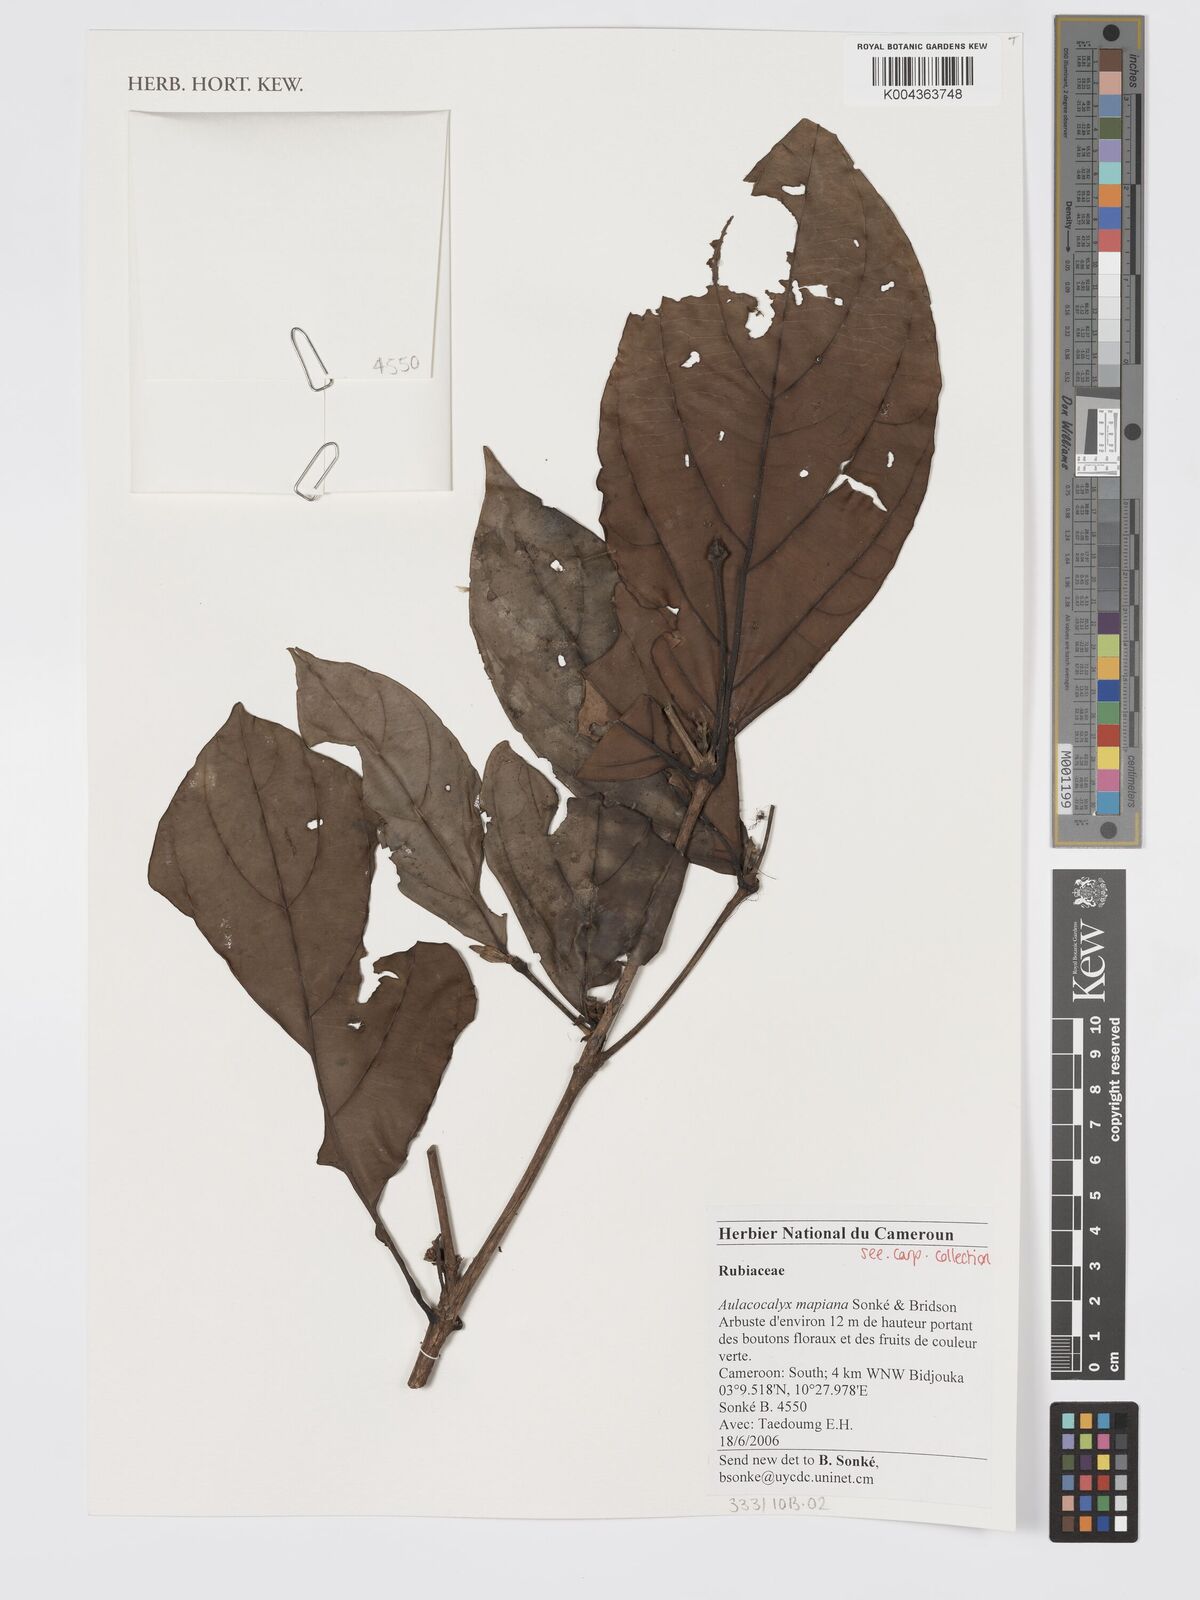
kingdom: Plantae
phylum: Tracheophyta
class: Magnoliopsida
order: Gentianales
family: Rubiaceae
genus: Aulacocalyx
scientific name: Aulacocalyx mapiana
